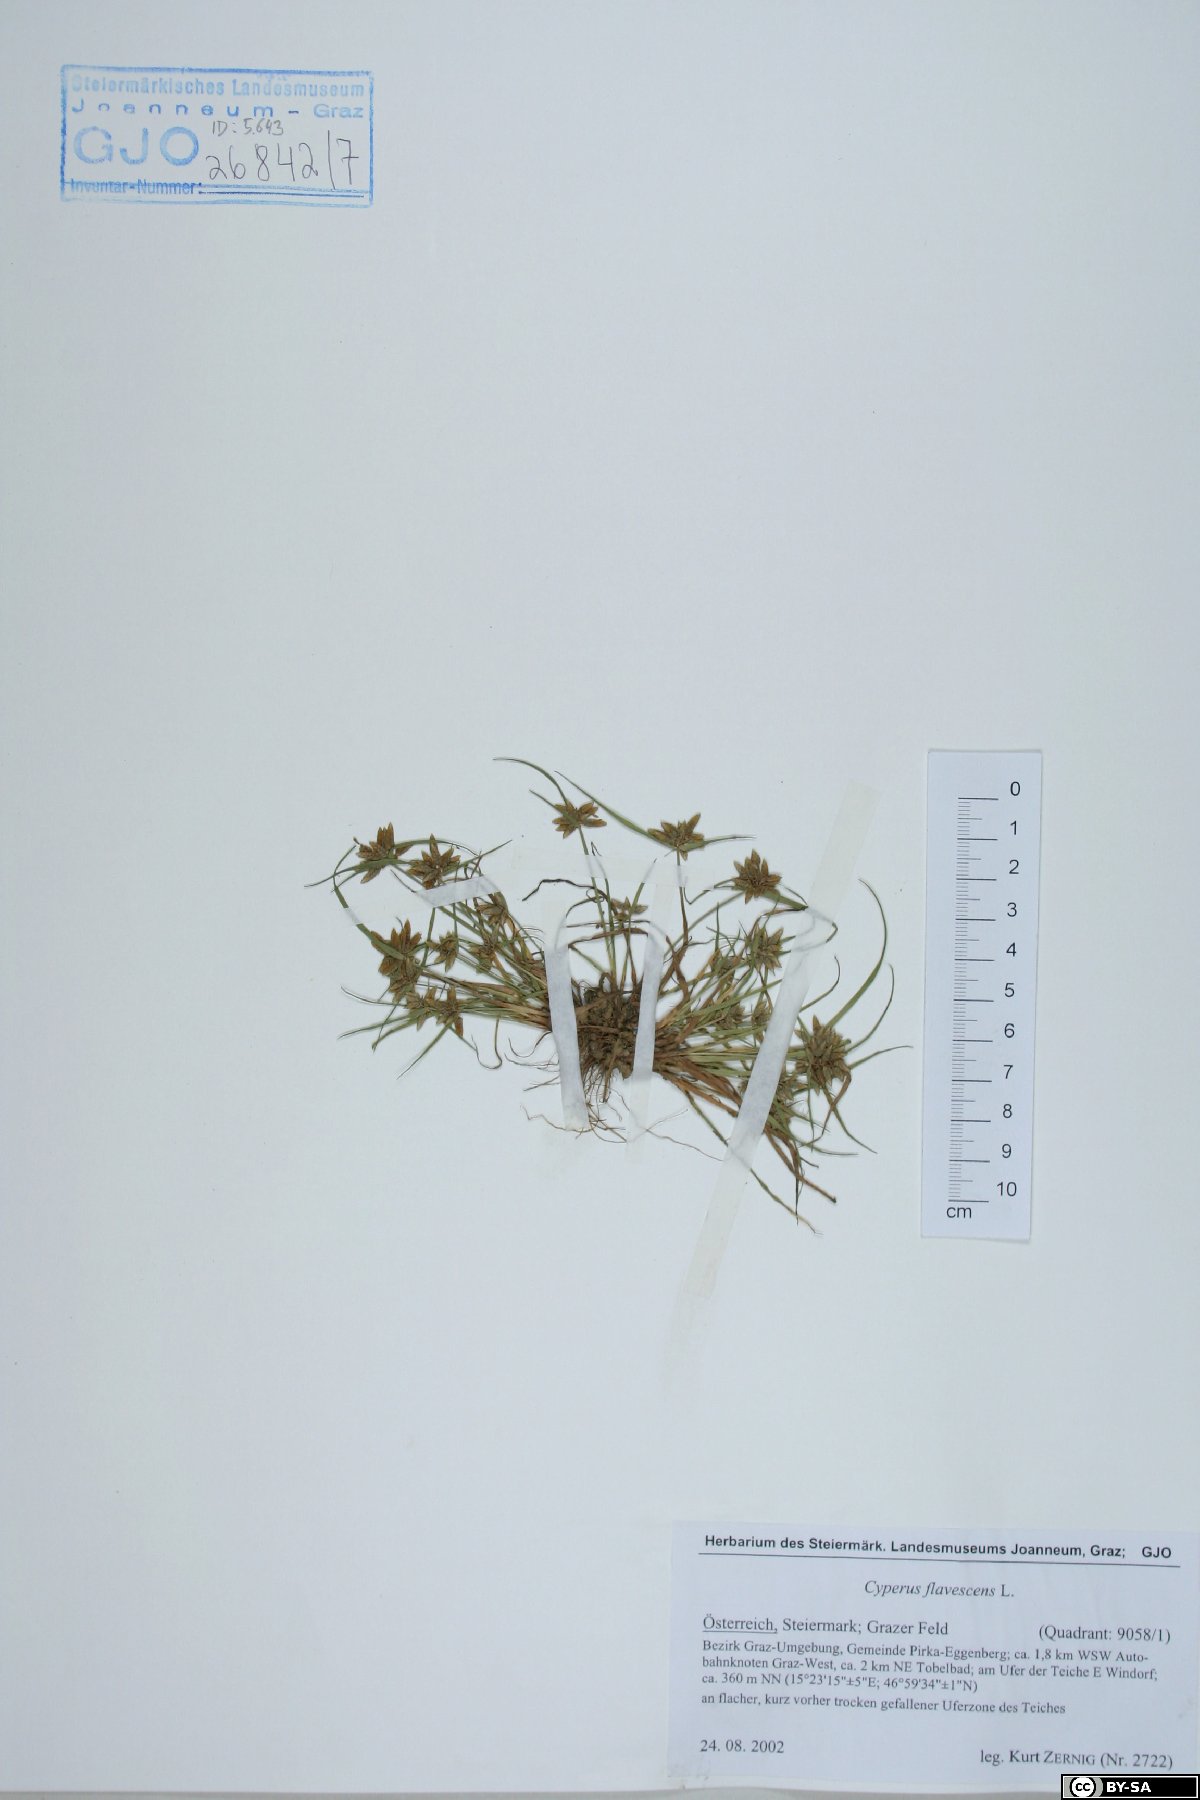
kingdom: Plantae
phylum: Tracheophyta
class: Liliopsida
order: Poales
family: Cyperaceae
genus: Cyperus
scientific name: Cyperus flavescens
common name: Yellow galingale
